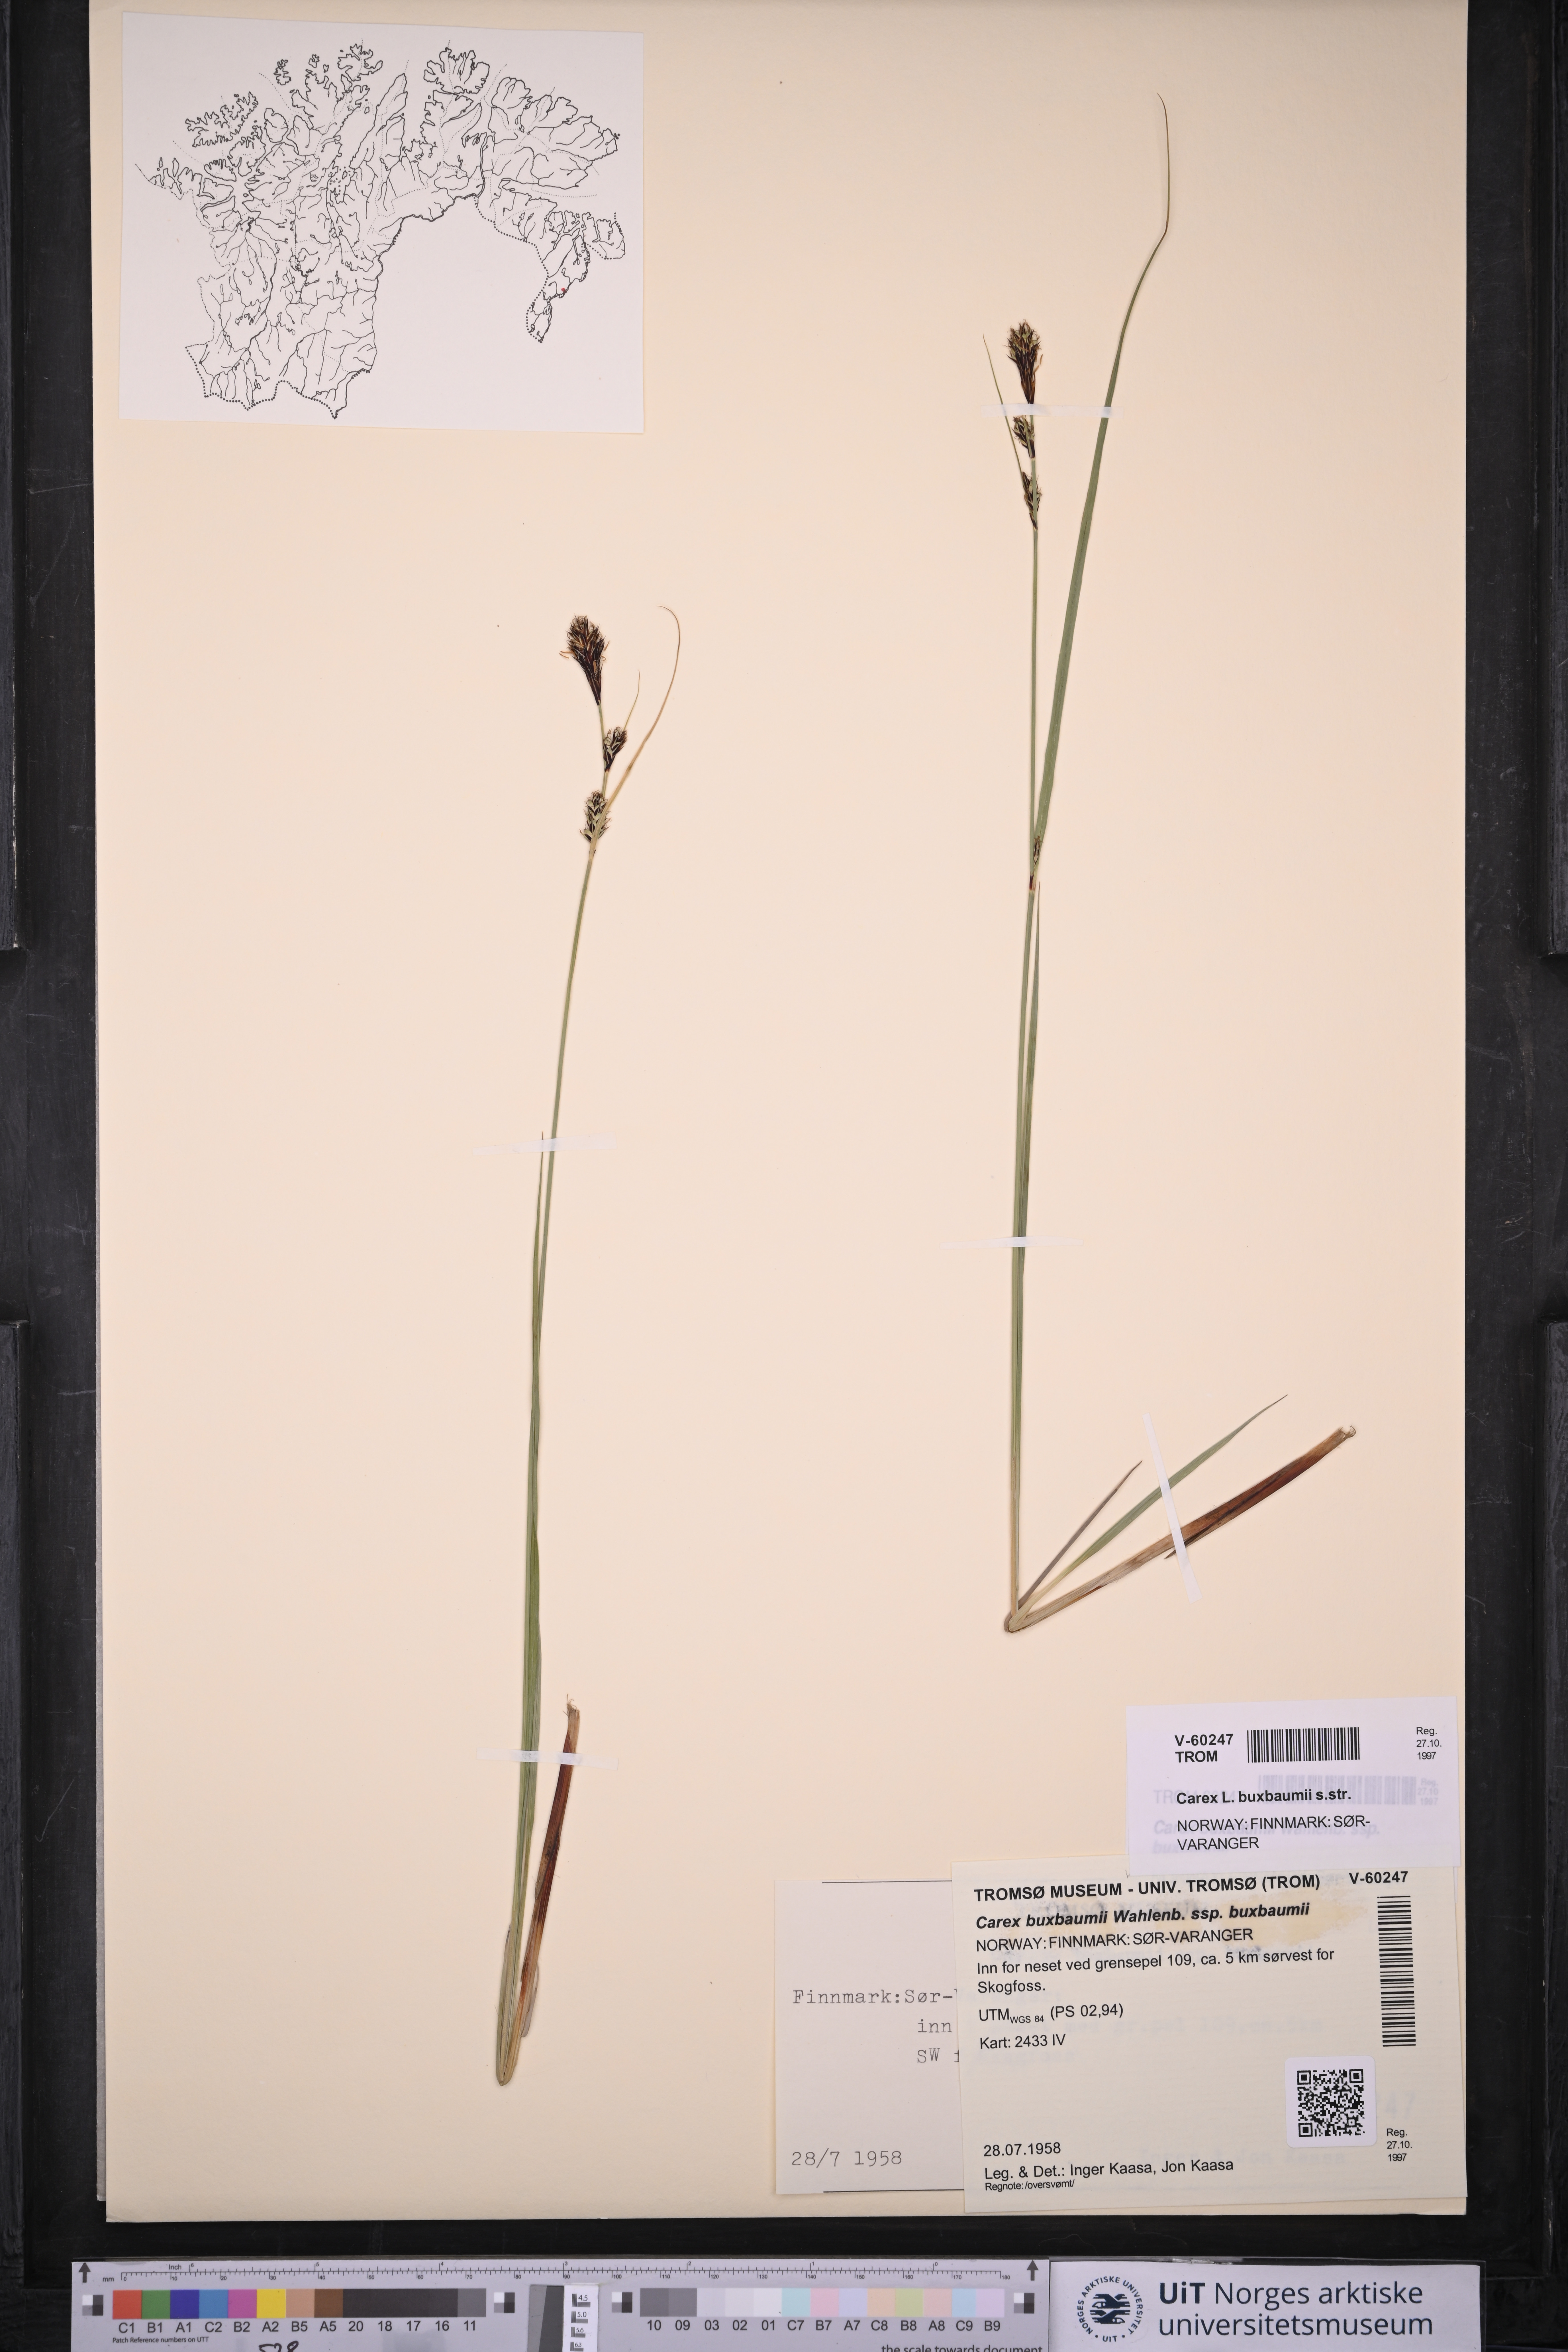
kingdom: Plantae
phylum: Tracheophyta
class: Liliopsida
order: Poales
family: Cyperaceae
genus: Carex
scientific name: Carex buxbaumii
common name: Club sedge
